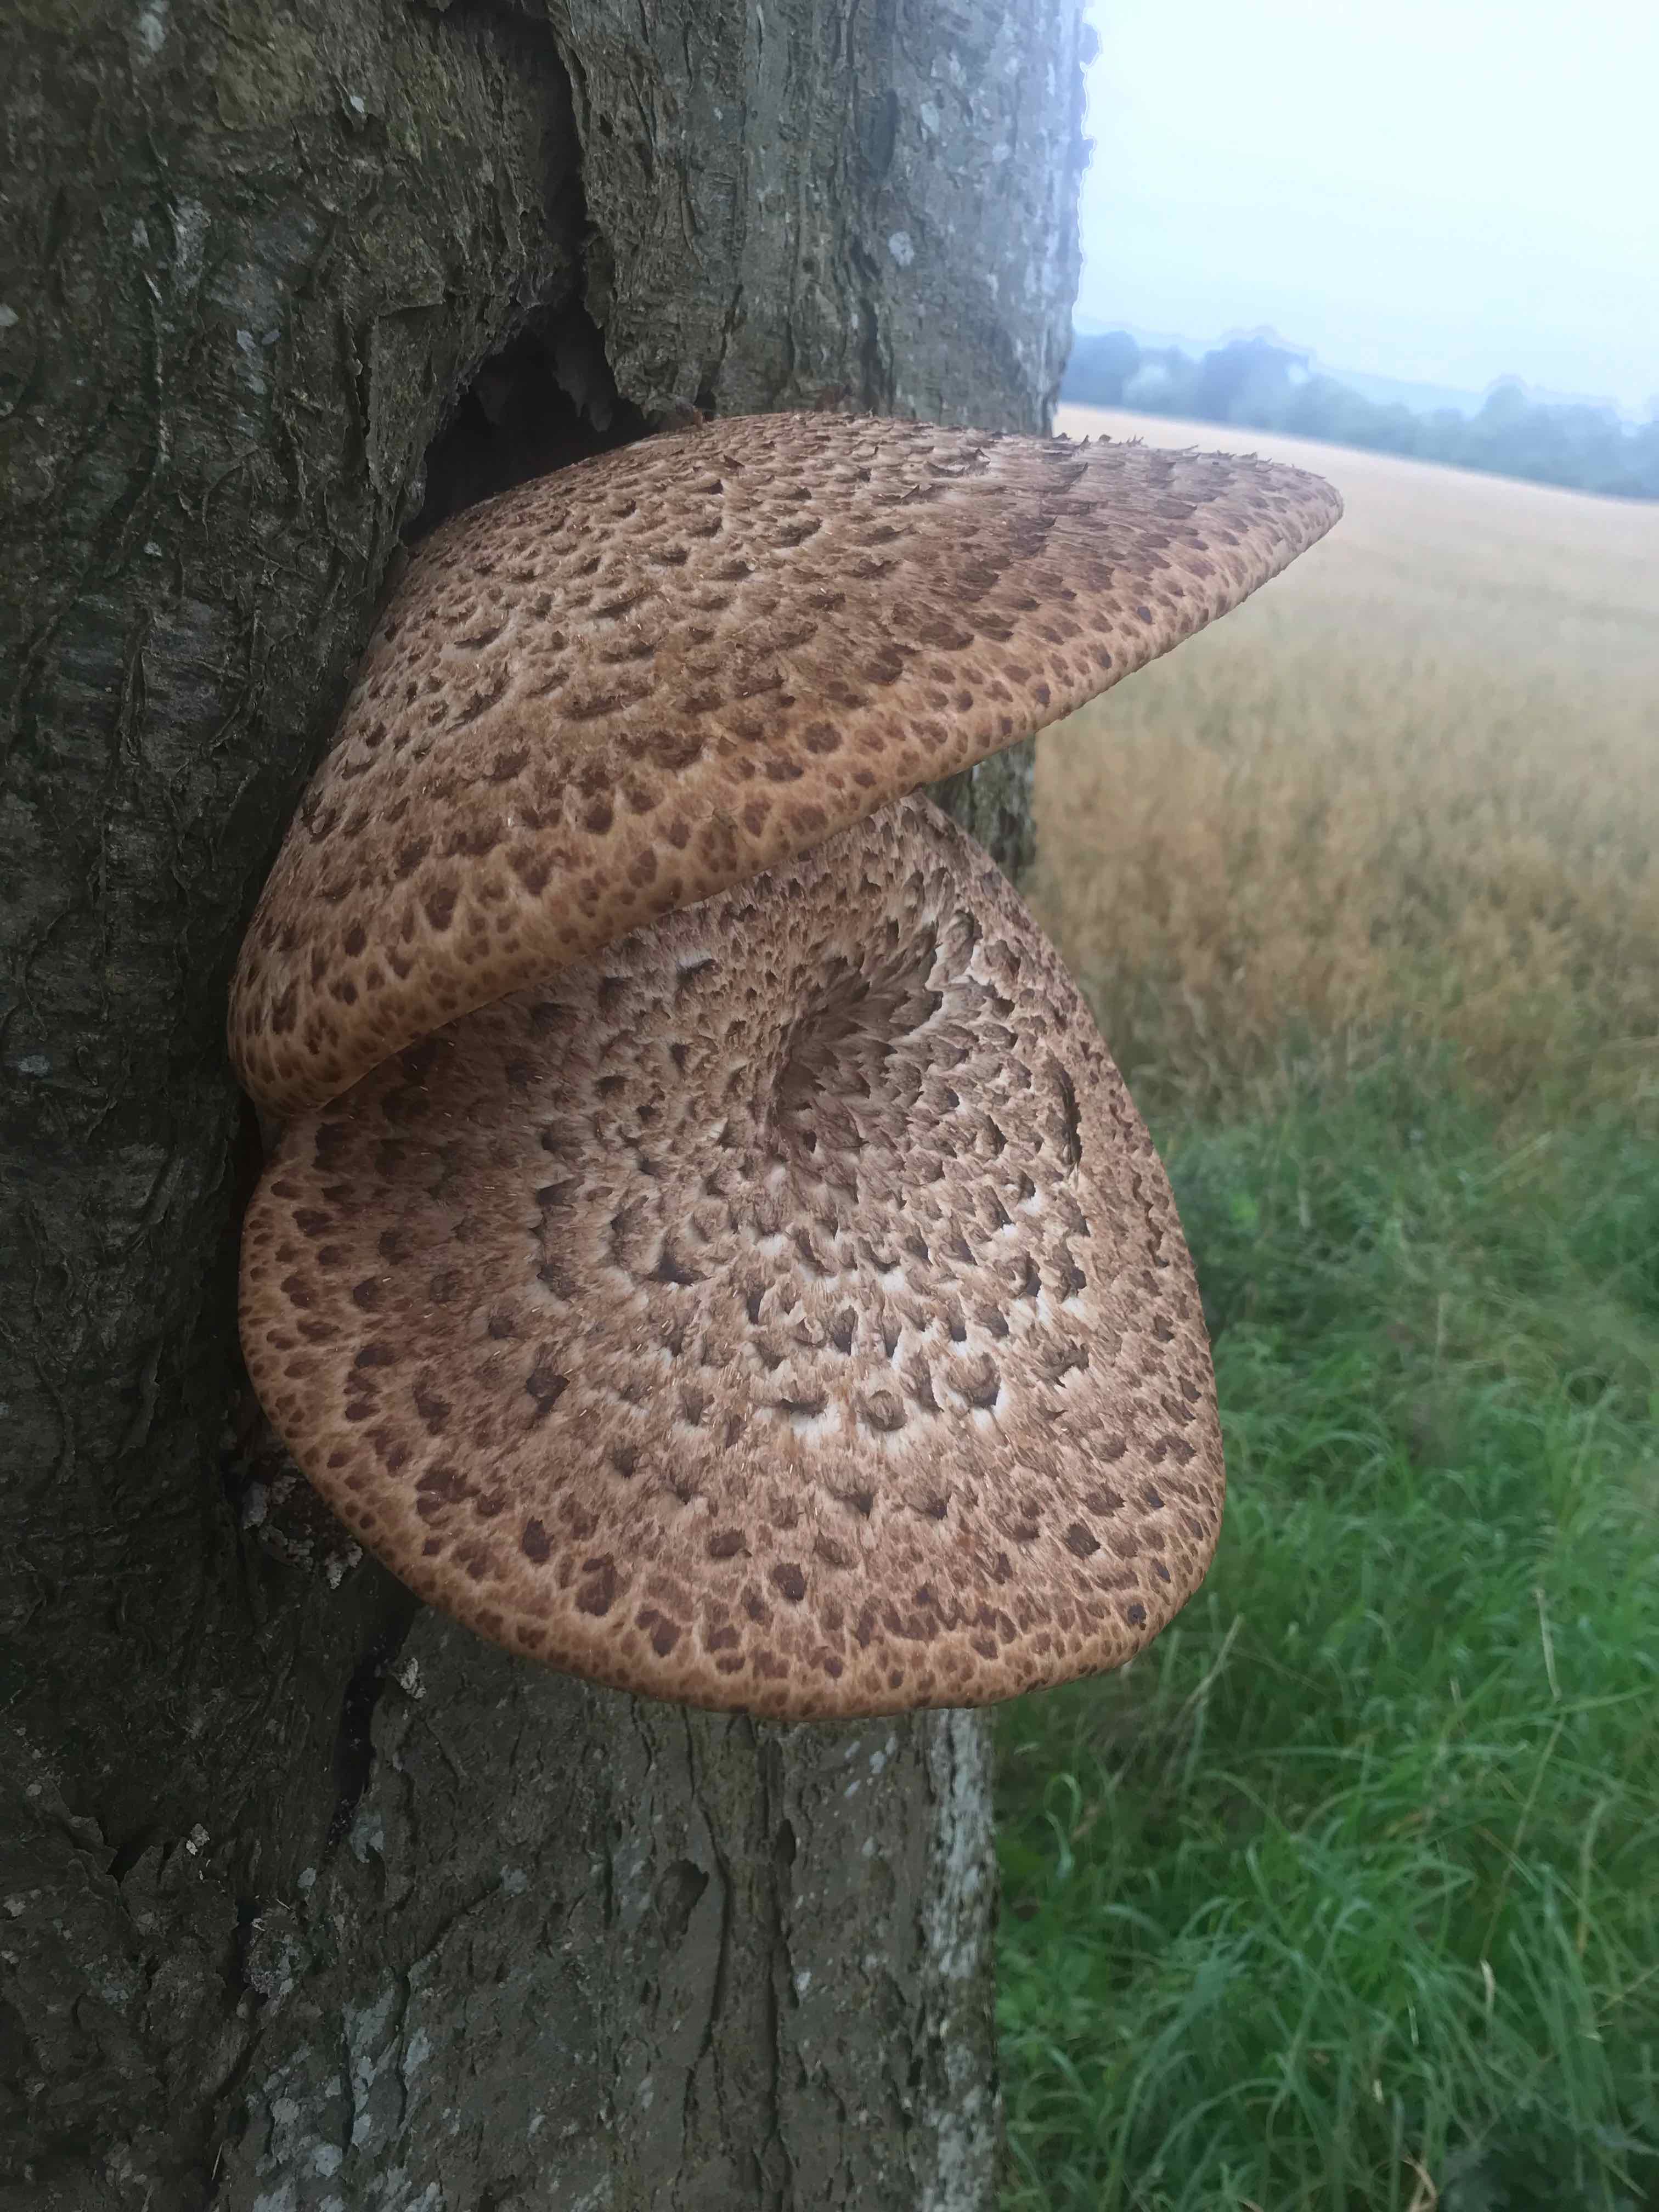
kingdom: Fungi
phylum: Basidiomycota
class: Agaricomycetes
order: Polyporales
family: Polyporaceae
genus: Cerioporus
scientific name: Cerioporus squamosus
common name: skællet stilkporesvamp
